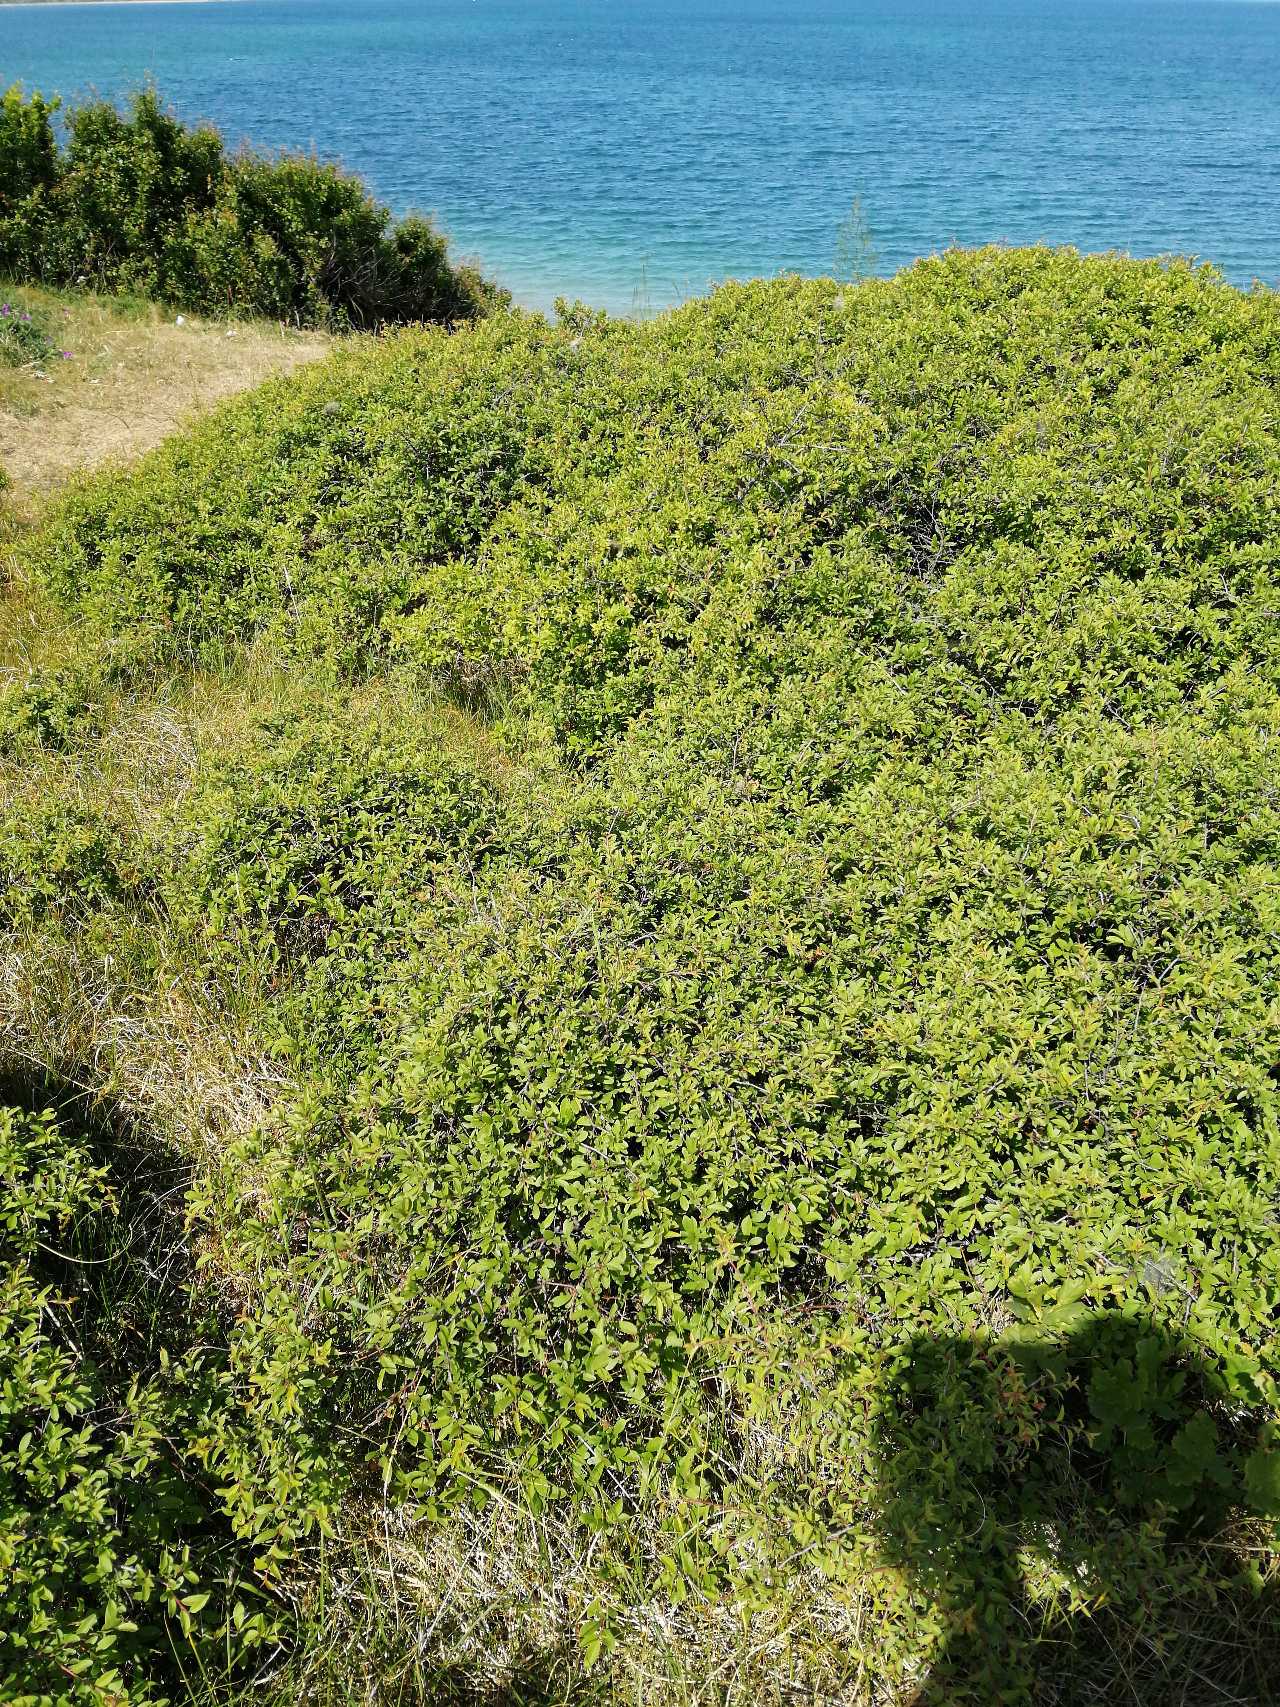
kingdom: Plantae
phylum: Tracheophyta
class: Magnoliopsida
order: Rosales
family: Rosaceae
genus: Prunus
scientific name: Prunus spinosa
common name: Slåen
